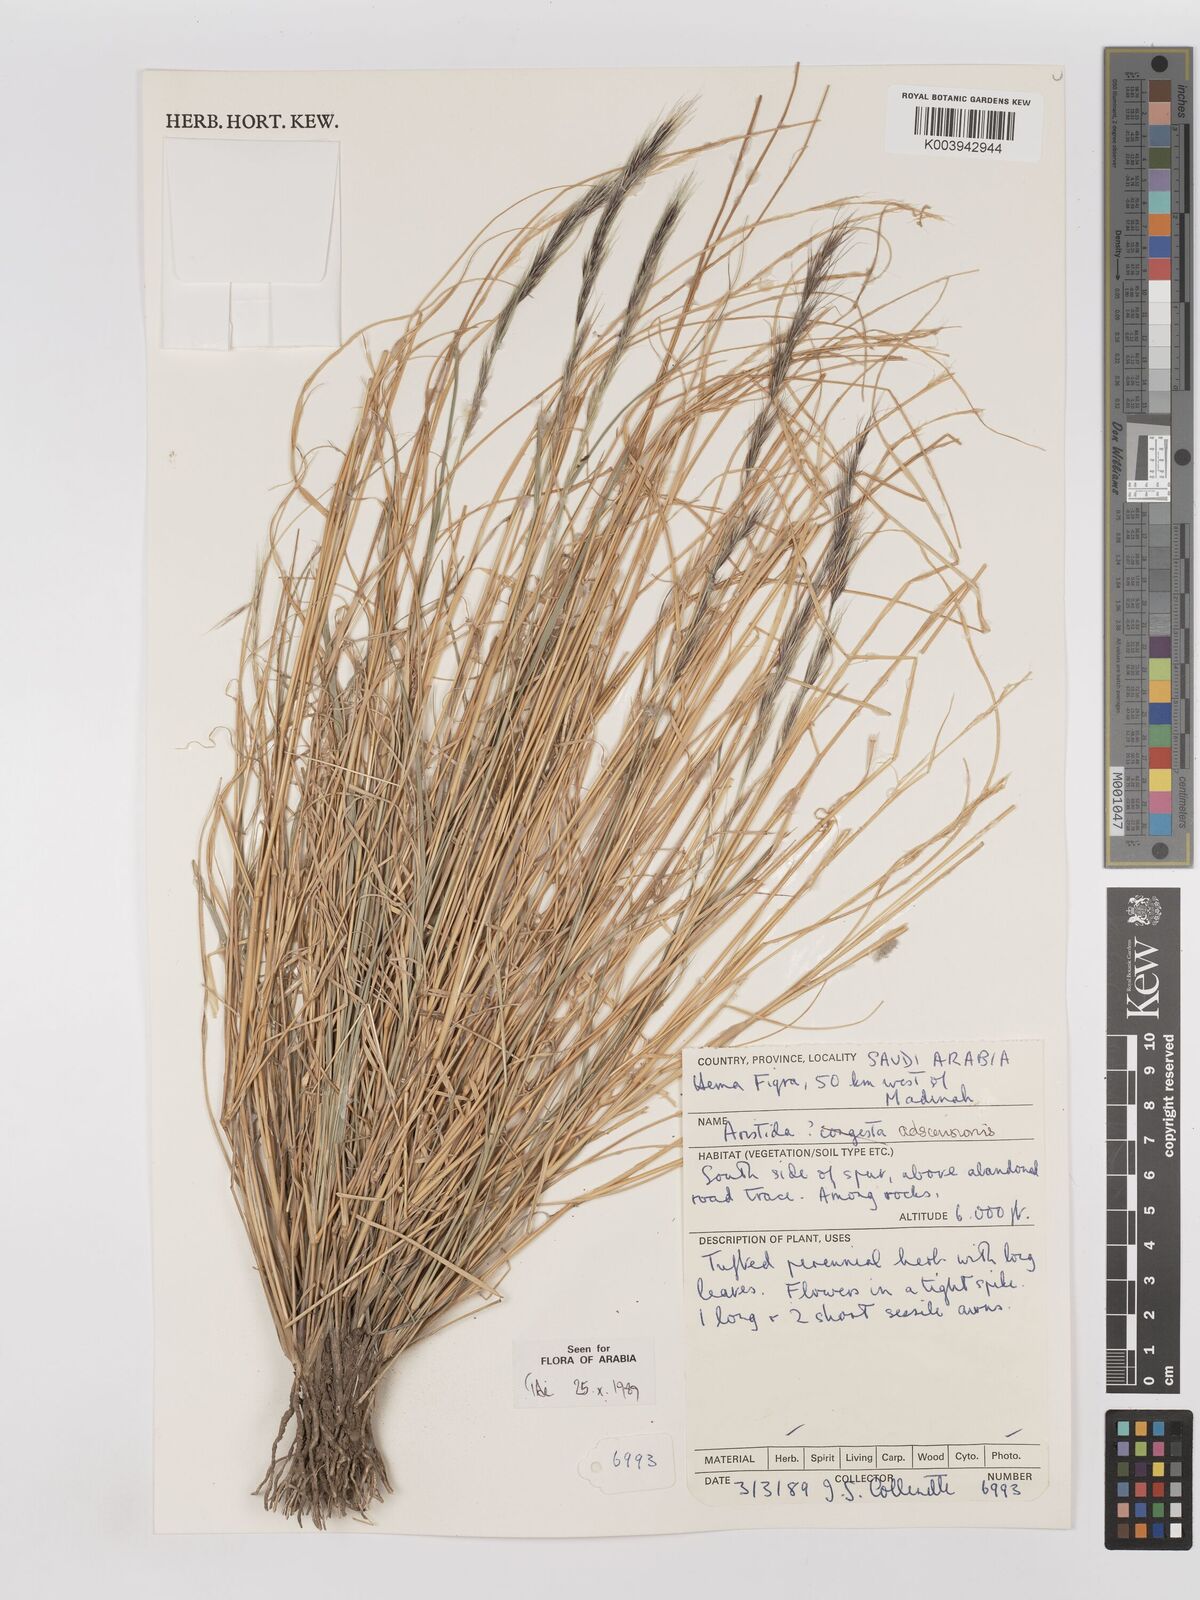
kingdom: Plantae
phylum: Tracheophyta
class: Liliopsida
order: Poales
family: Poaceae
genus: Aristida
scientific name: Aristida adscensionis
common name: Sixweeks threeawn
